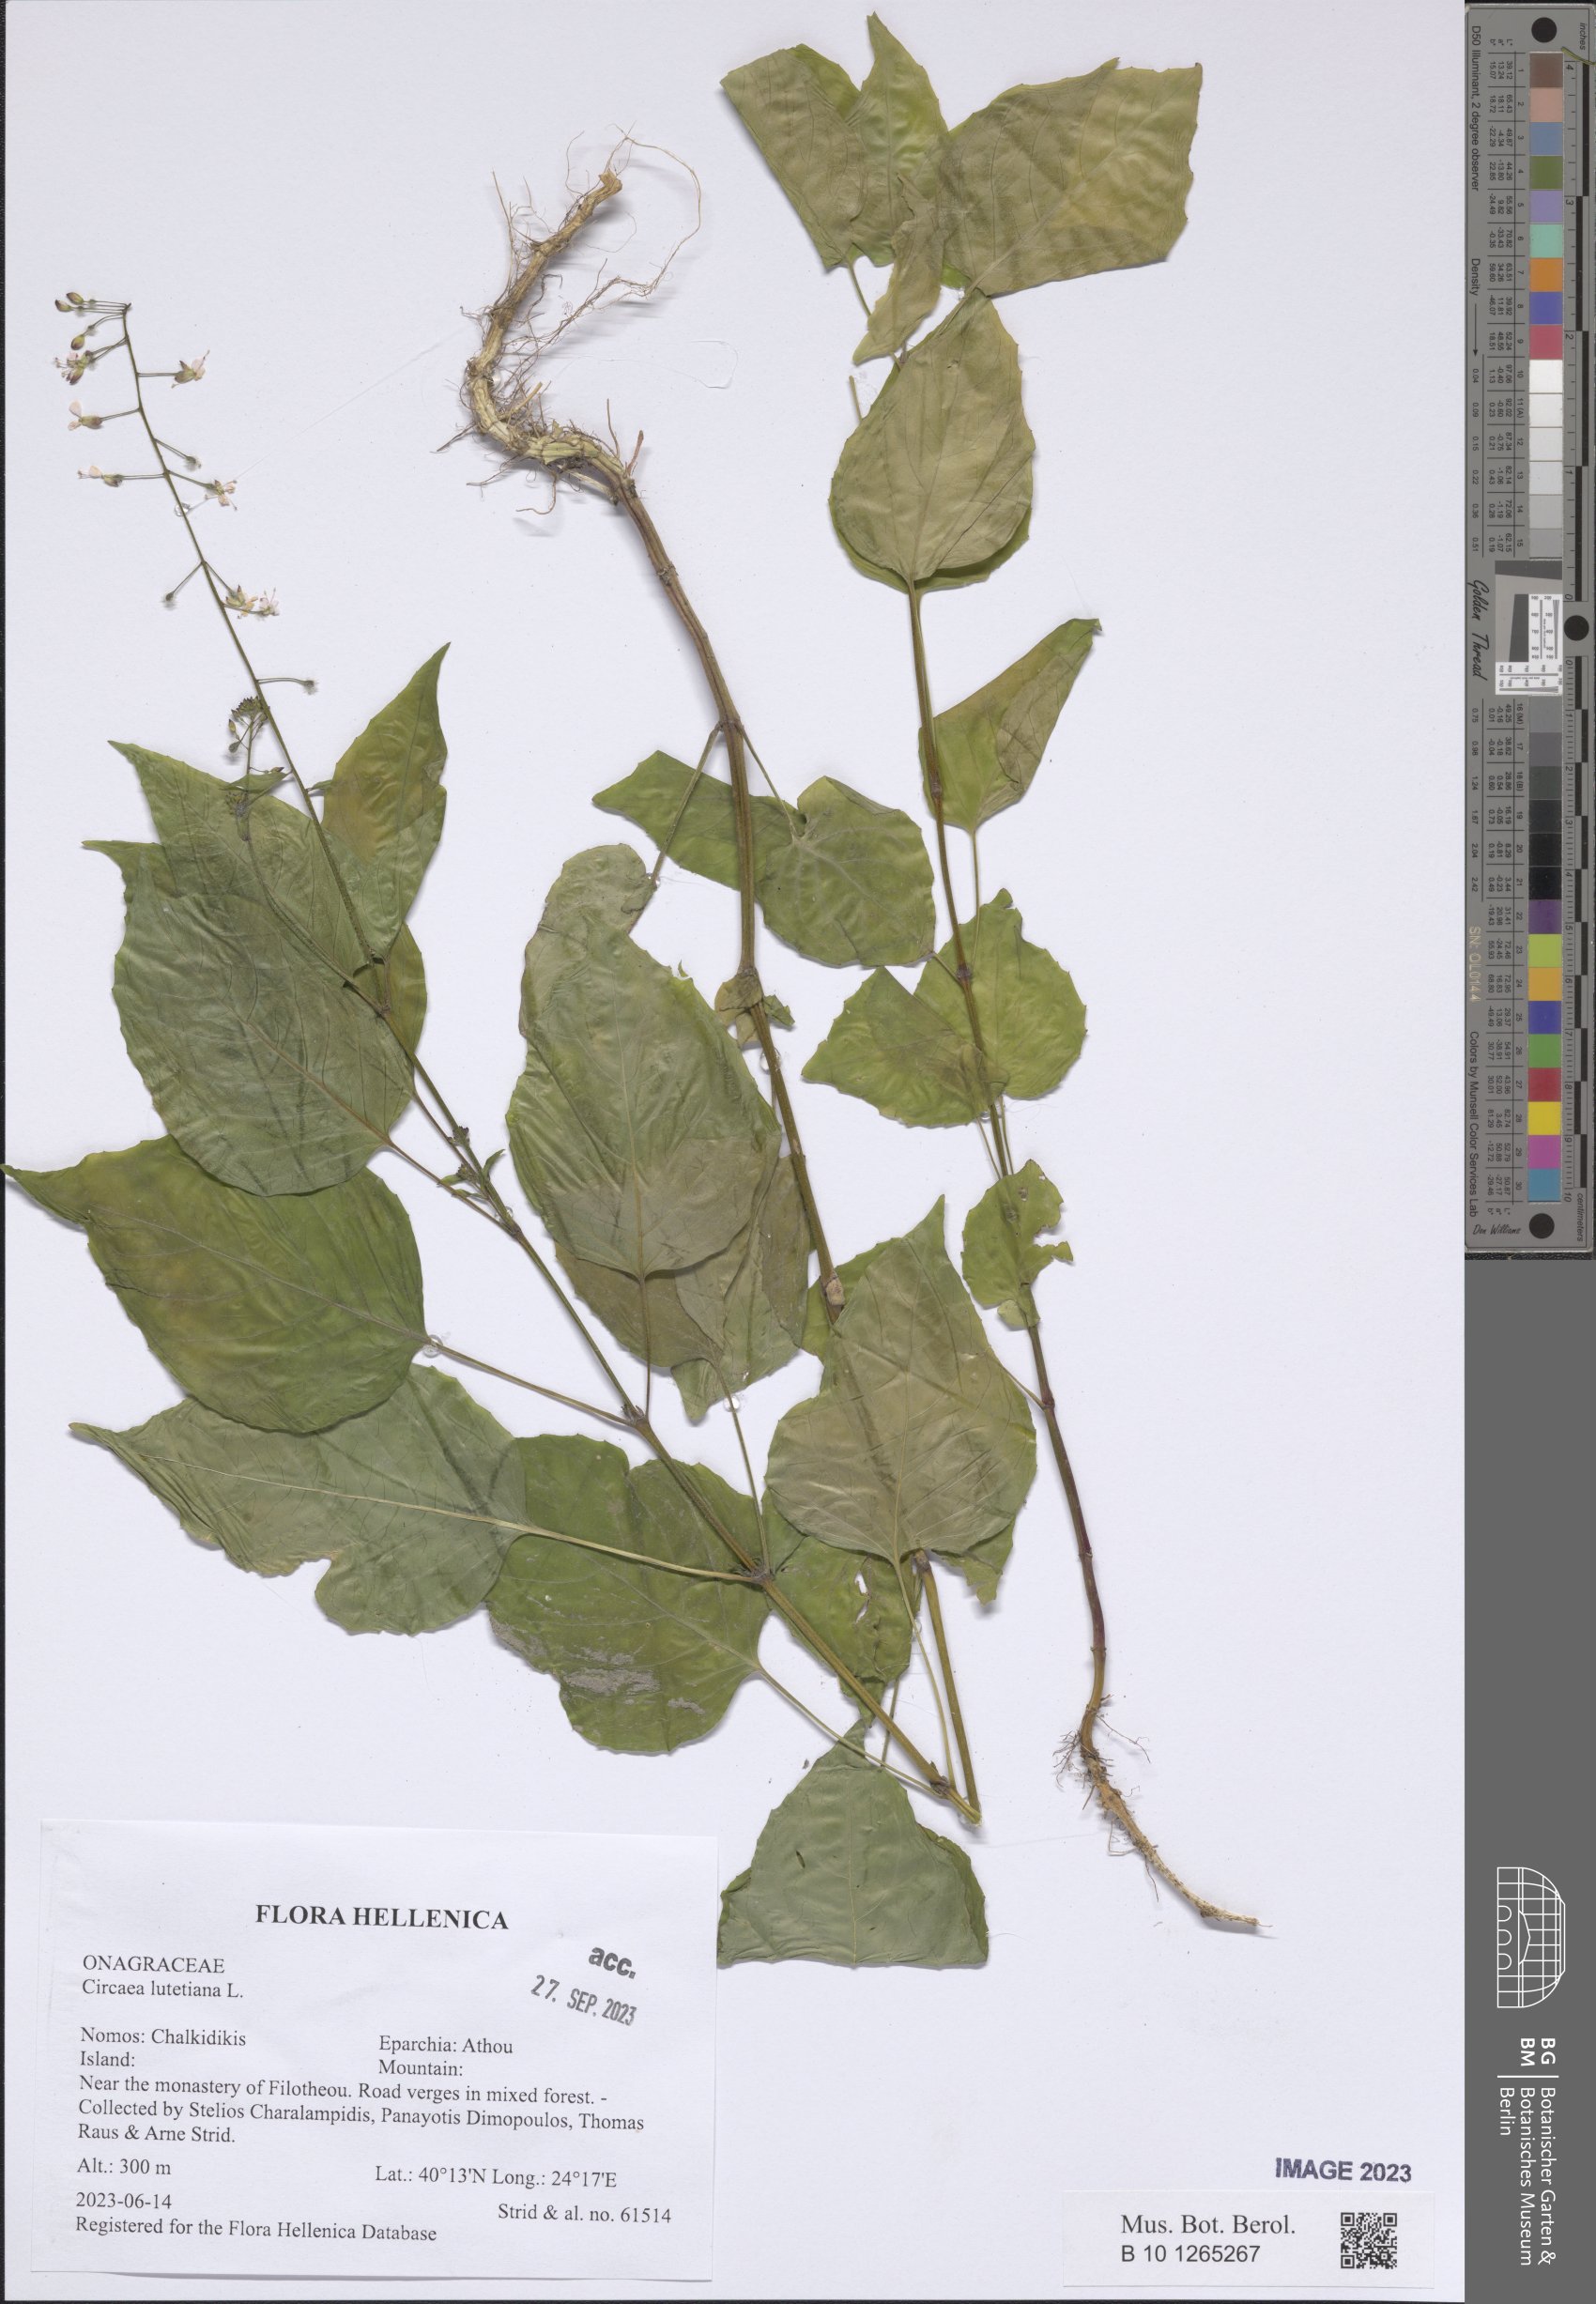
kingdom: Plantae
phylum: Tracheophyta
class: Magnoliopsida
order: Myrtales
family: Onagraceae
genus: Circaea
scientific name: Circaea lutetiana
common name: Enchanter's-nightshade
